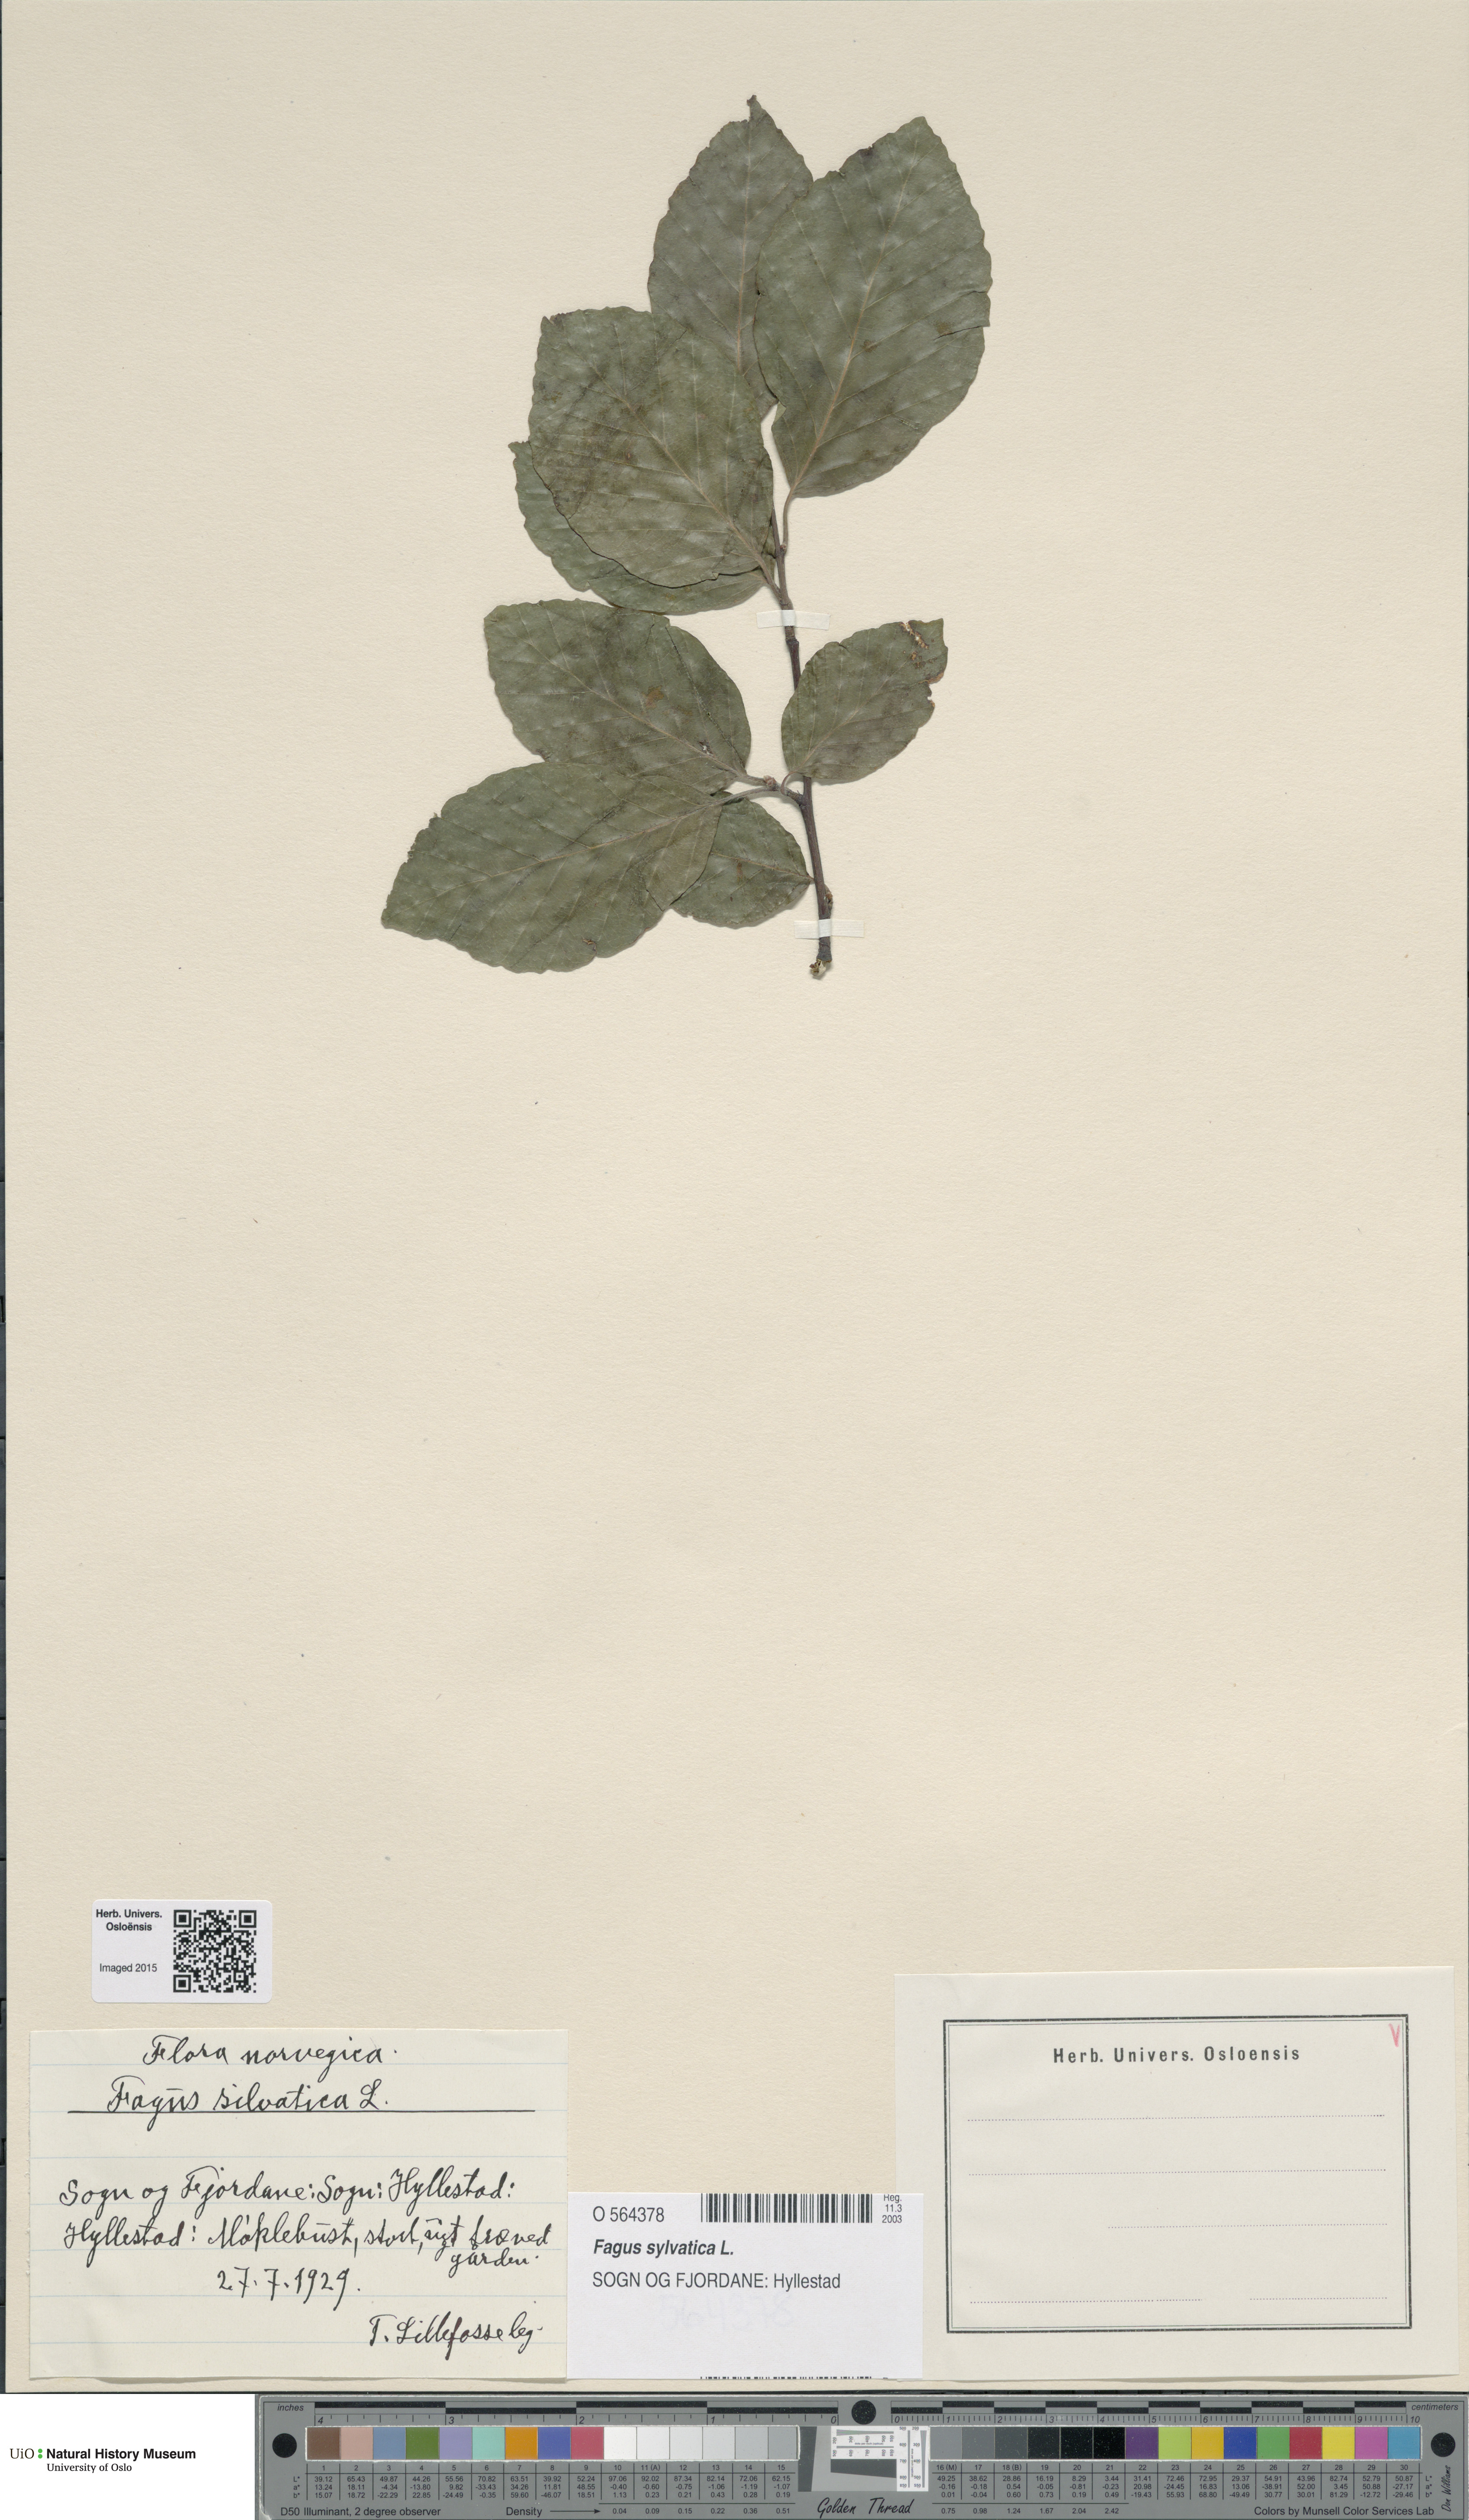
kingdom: Plantae
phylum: Tracheophyta
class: Magnoliopsida
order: Fagales
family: Fagaceae
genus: Fagus
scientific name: Fagus sylvatica
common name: Beech
